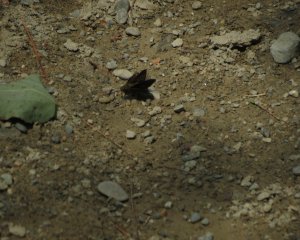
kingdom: Animalia
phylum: Arthropoda
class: Insecta
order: Lepidoptera
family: Hesperiidae
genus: Euphyes
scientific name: Euphyes vestris
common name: Dun Skipper
